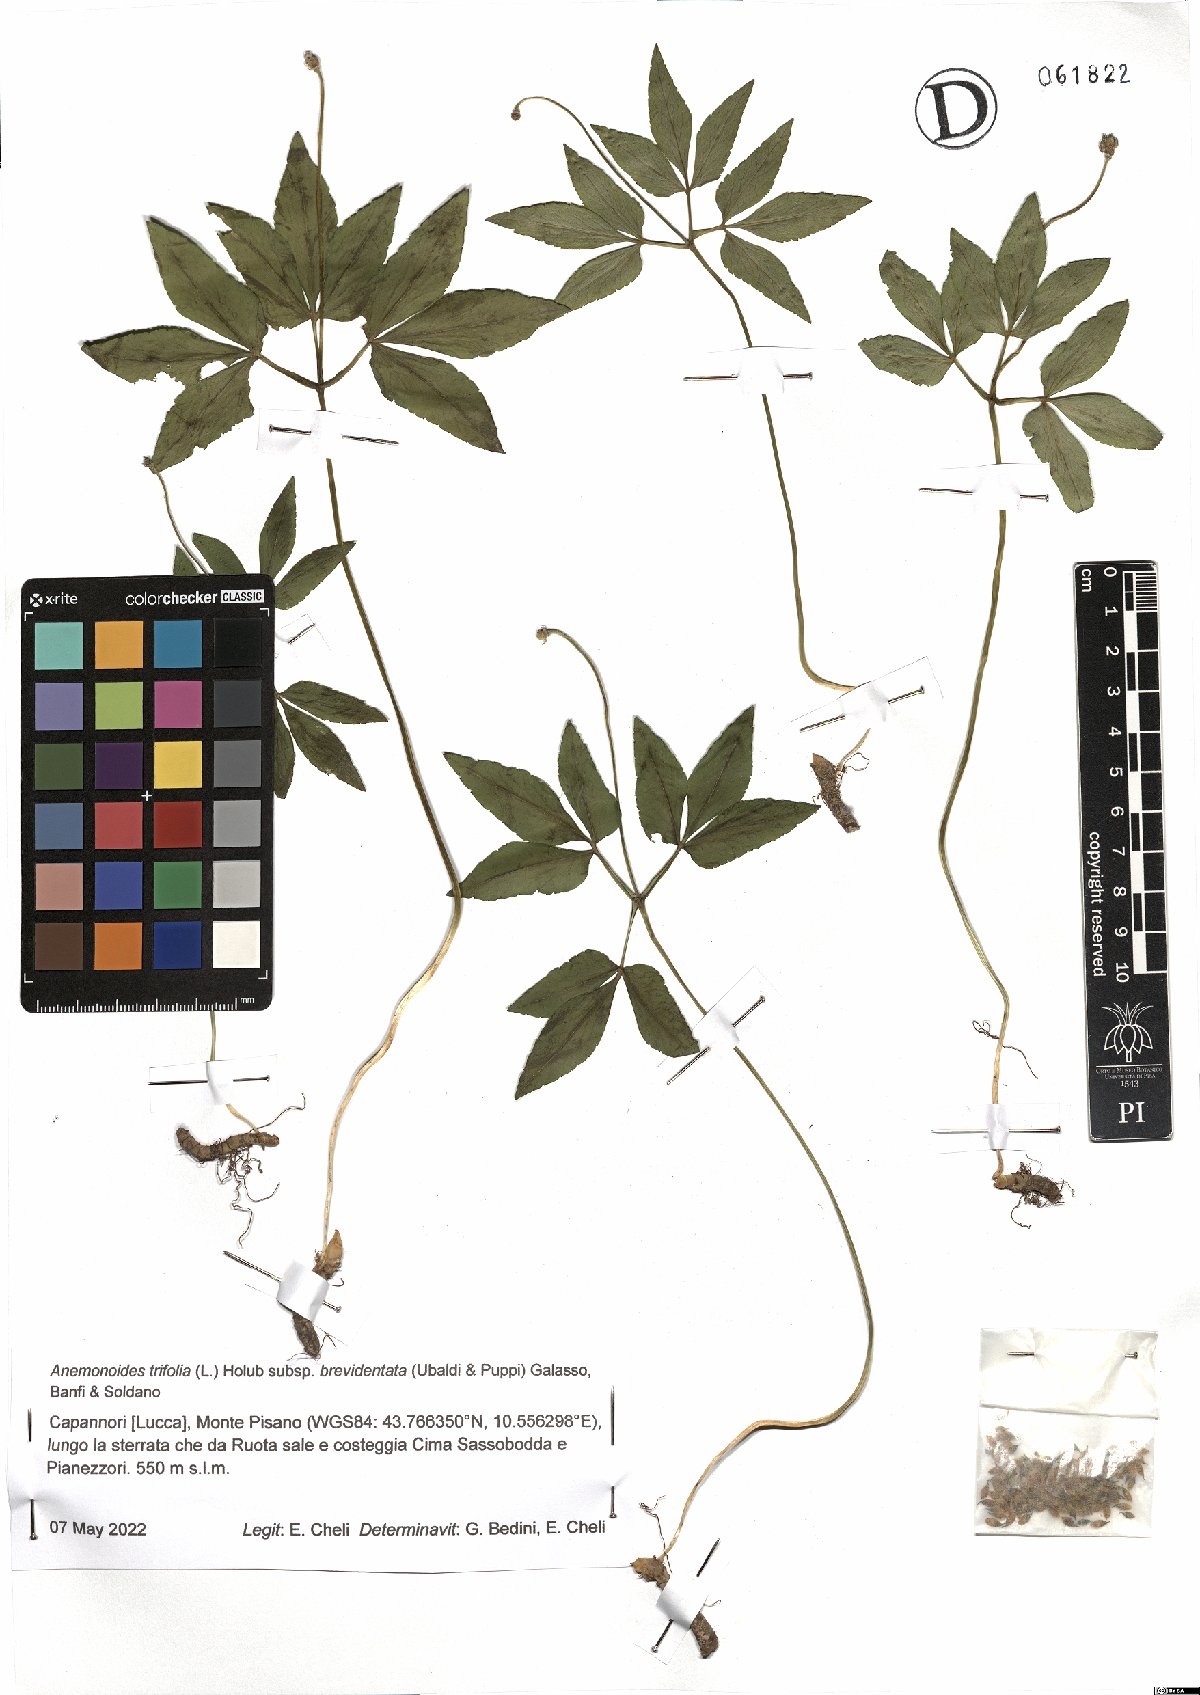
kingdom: Plantae
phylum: Tracheophyta
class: Magnoliopsida
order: Ranunculales
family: Ranunculaceae
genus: Anemone
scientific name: Anemone trifolia
